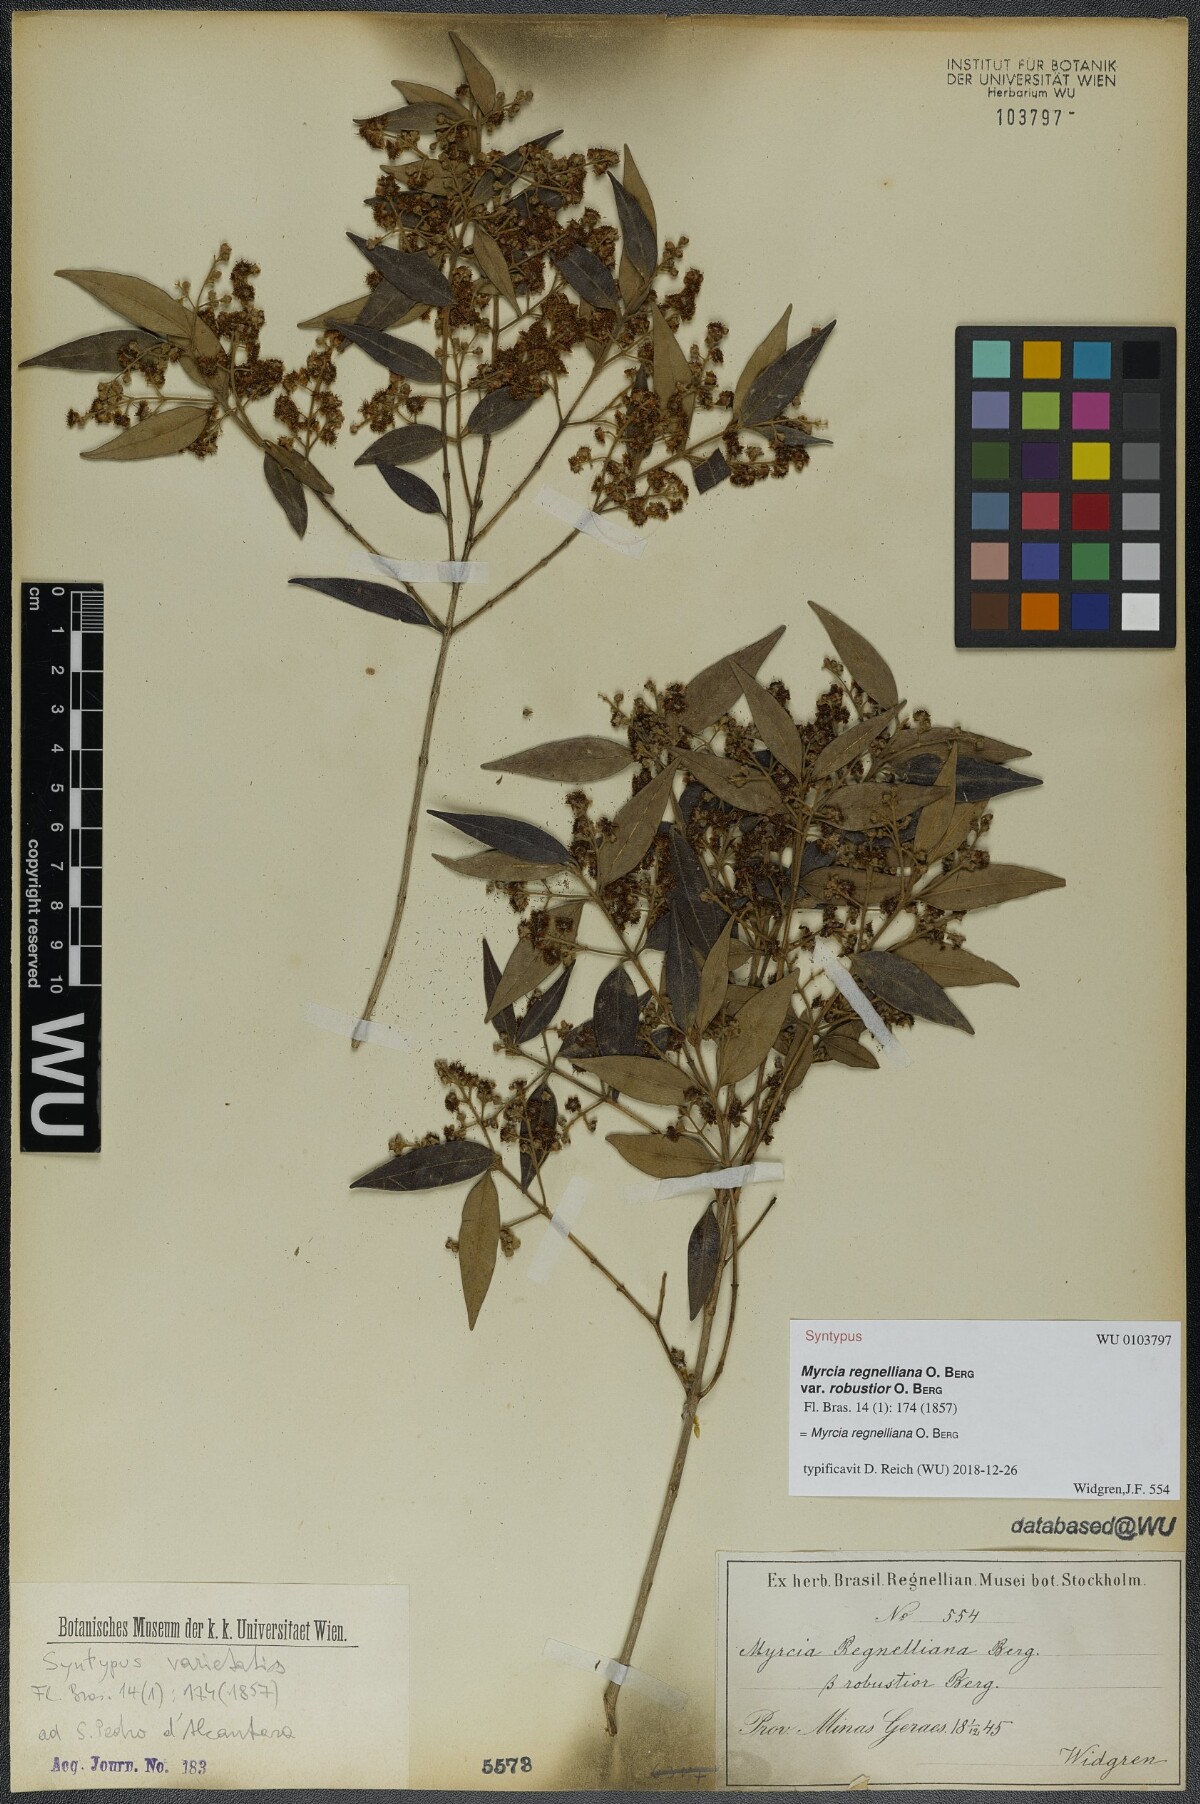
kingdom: Plantae
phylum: Tracheophyta
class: Magnoliopsida
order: Myrtales
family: Myrtaceae
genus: Myrcia
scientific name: Myrcia regnelliana
